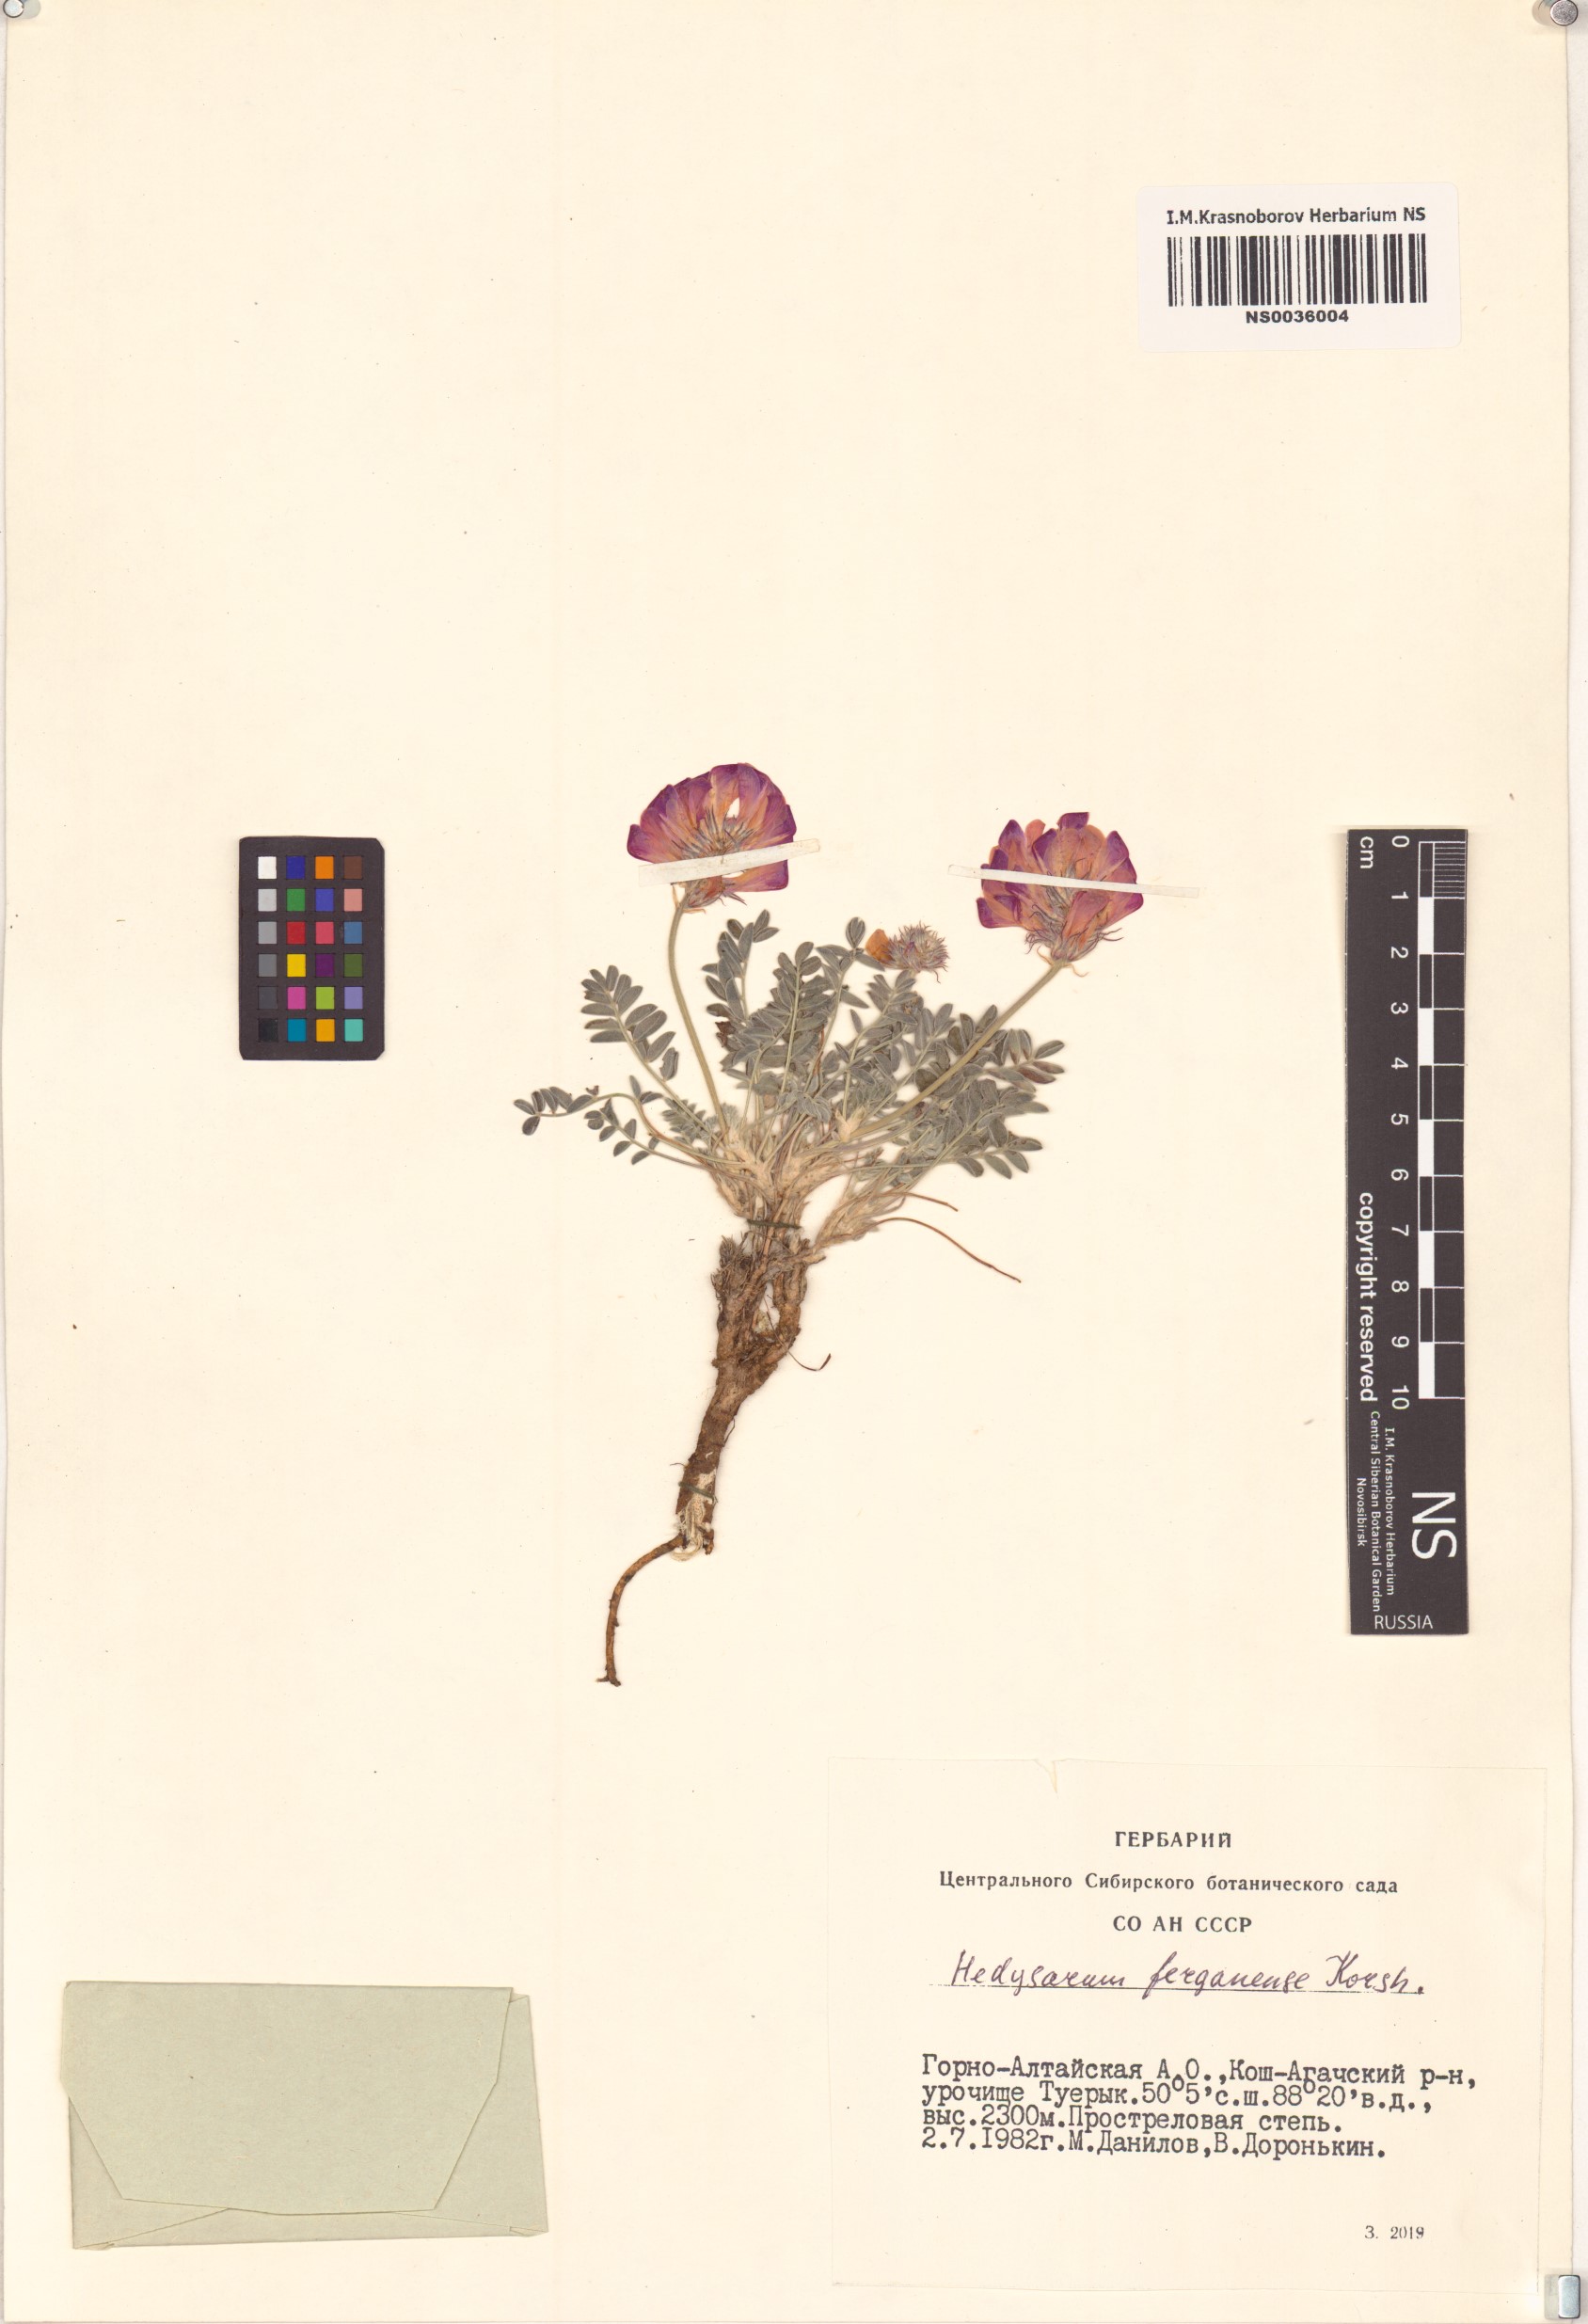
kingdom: Plantae
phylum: Tracheophyta
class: Magnoliopsida
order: Fabales
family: Fabaceae
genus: Hedysarum
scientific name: Hedysarum ferganense
